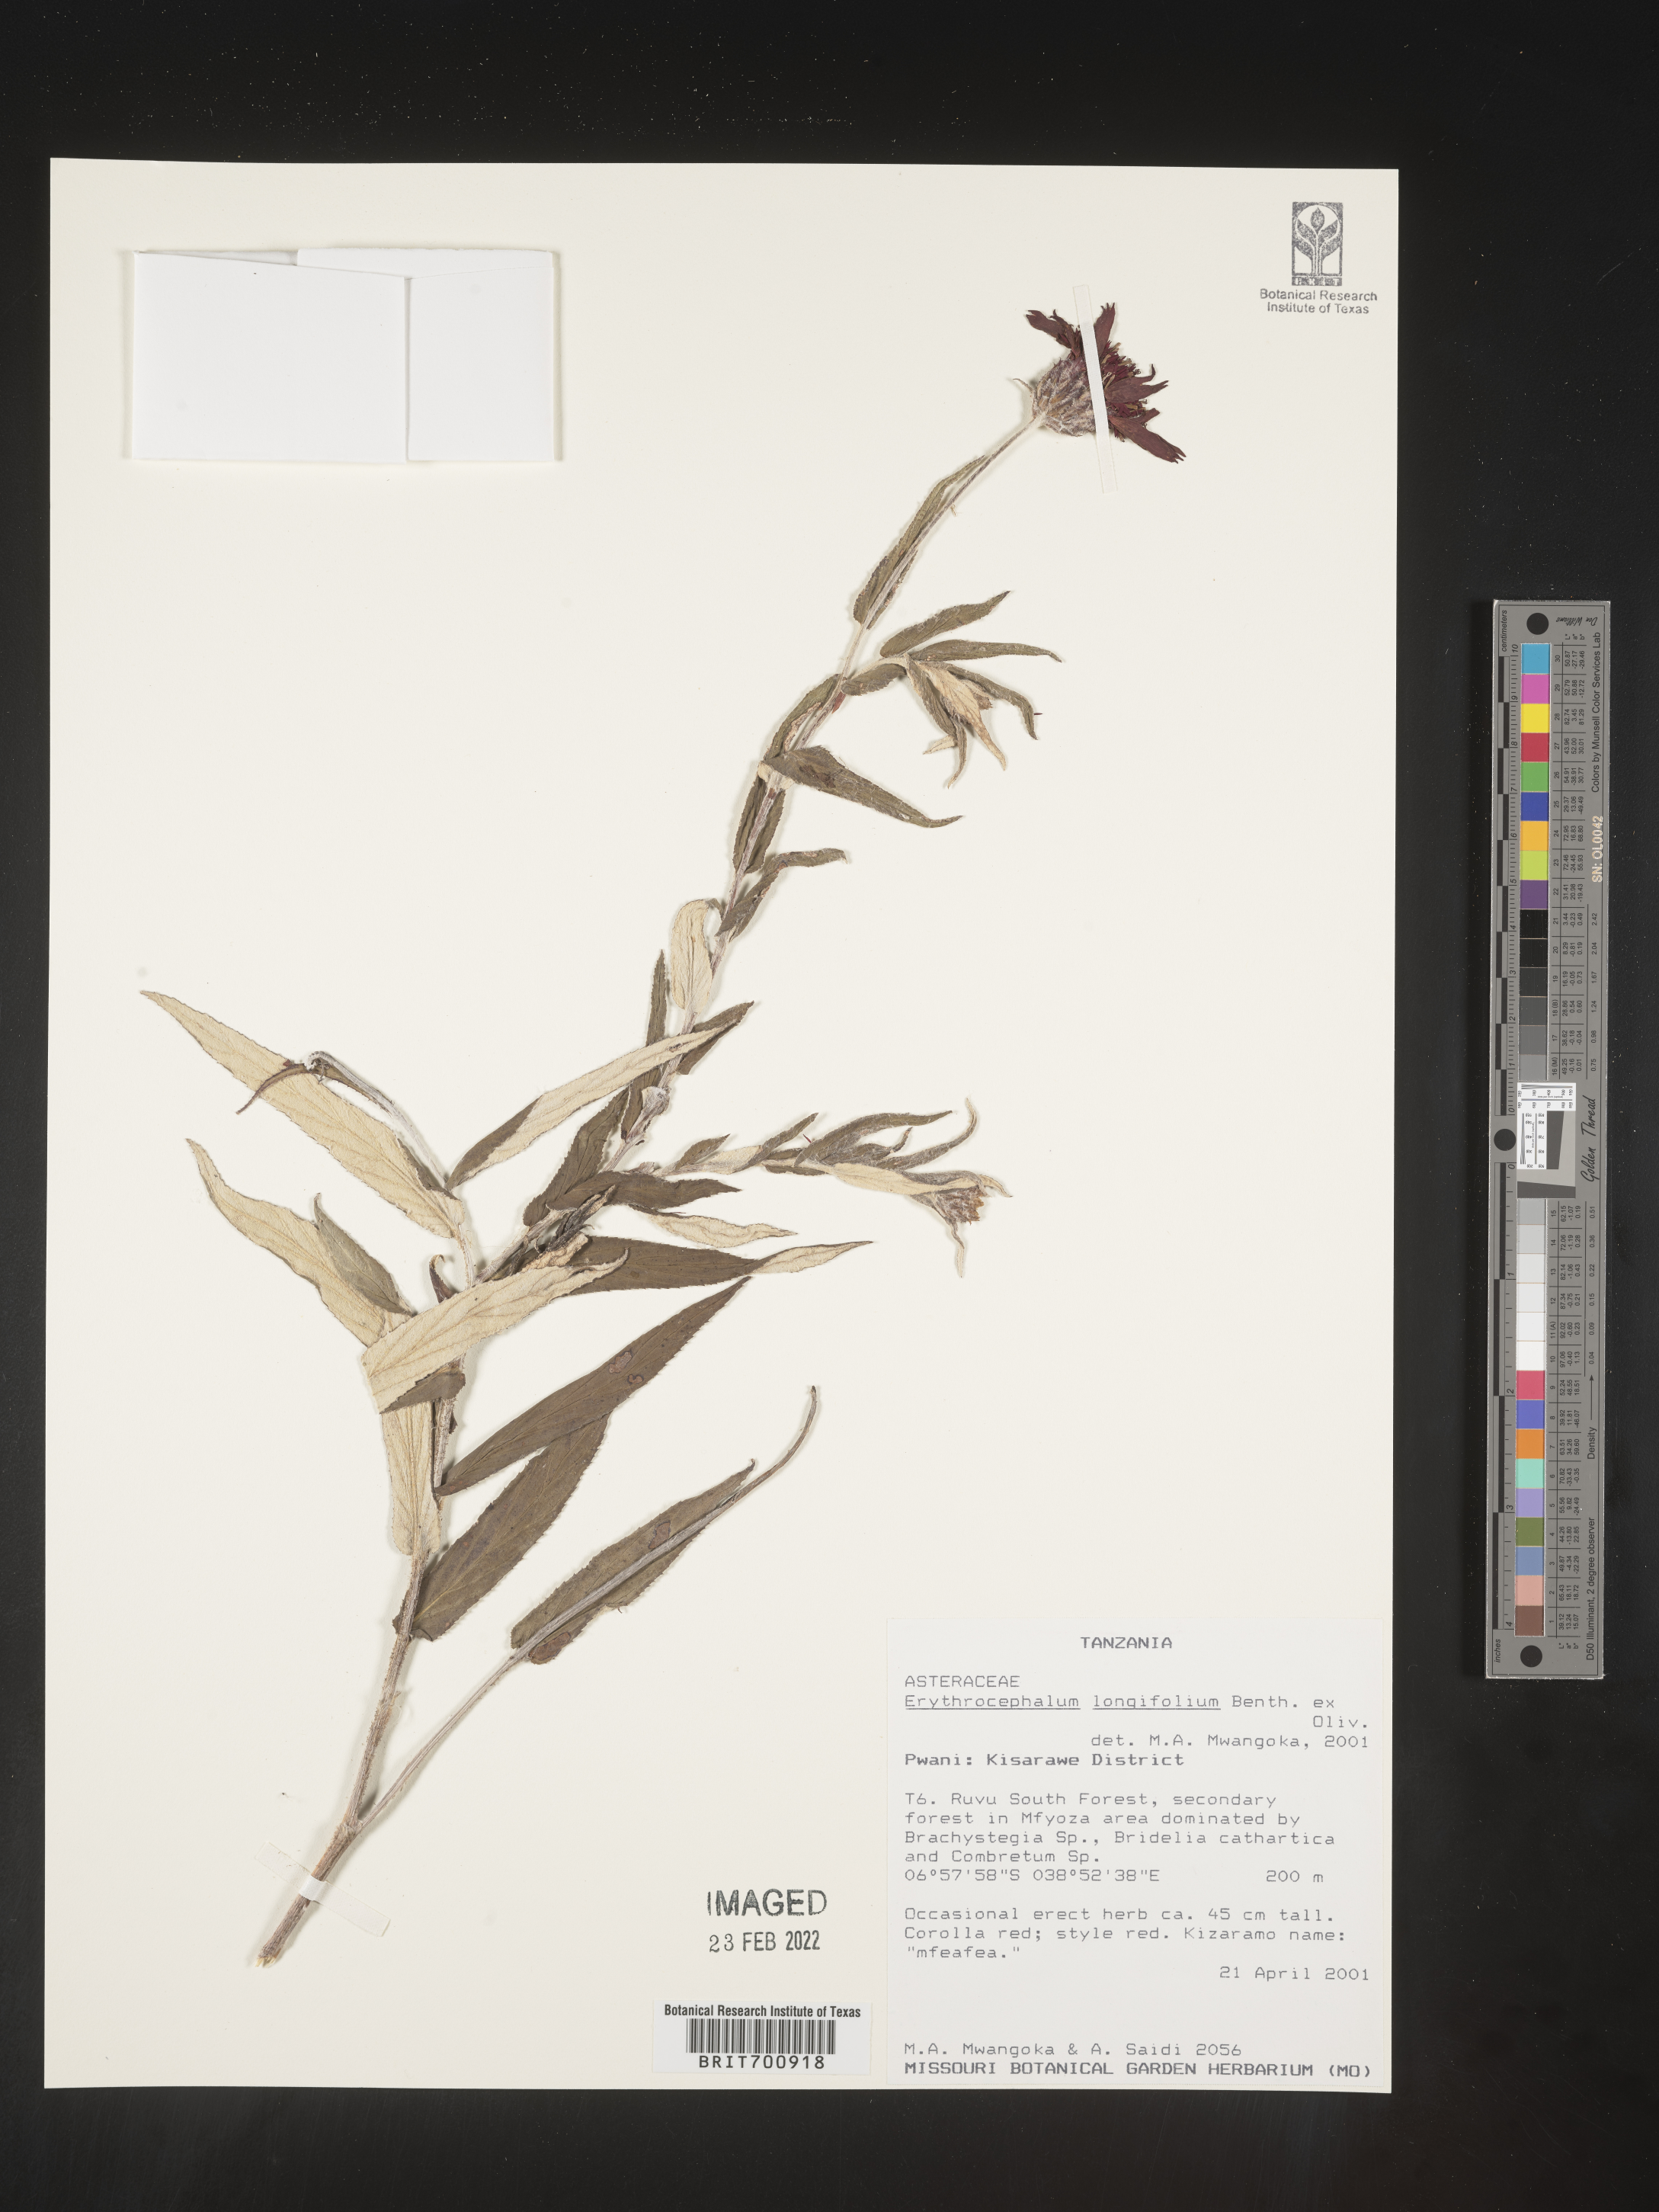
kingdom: Plantae
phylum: Tracheophyta
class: Magnoliopsida
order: Asterales
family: Asteraceae
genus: Erythrocephalum
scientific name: Erythrocephalum longifolium
